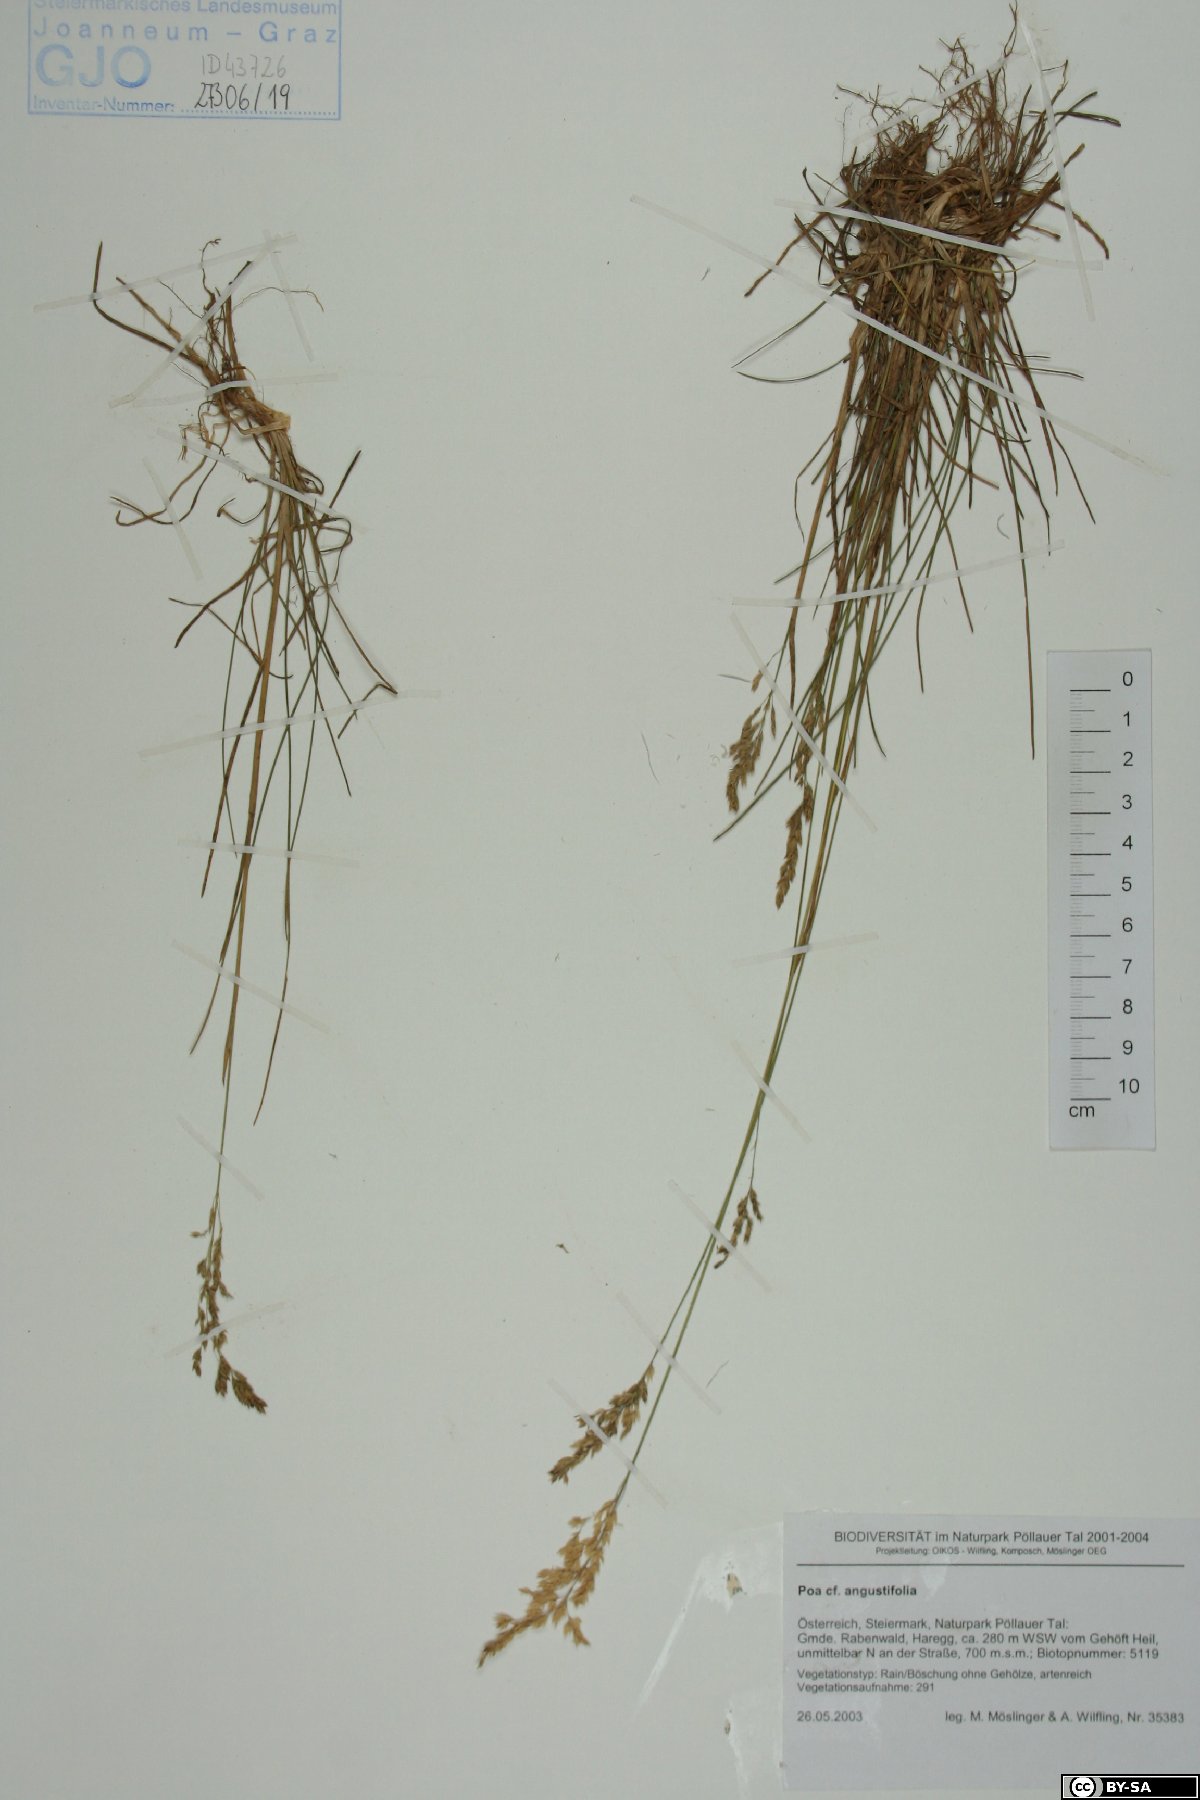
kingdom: Plantae
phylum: Tracheophyta
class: Liliopsida
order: Poales
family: Poaceae
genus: Poa
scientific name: Poa angustifolia
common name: Narrow-leaved meadow-grass
